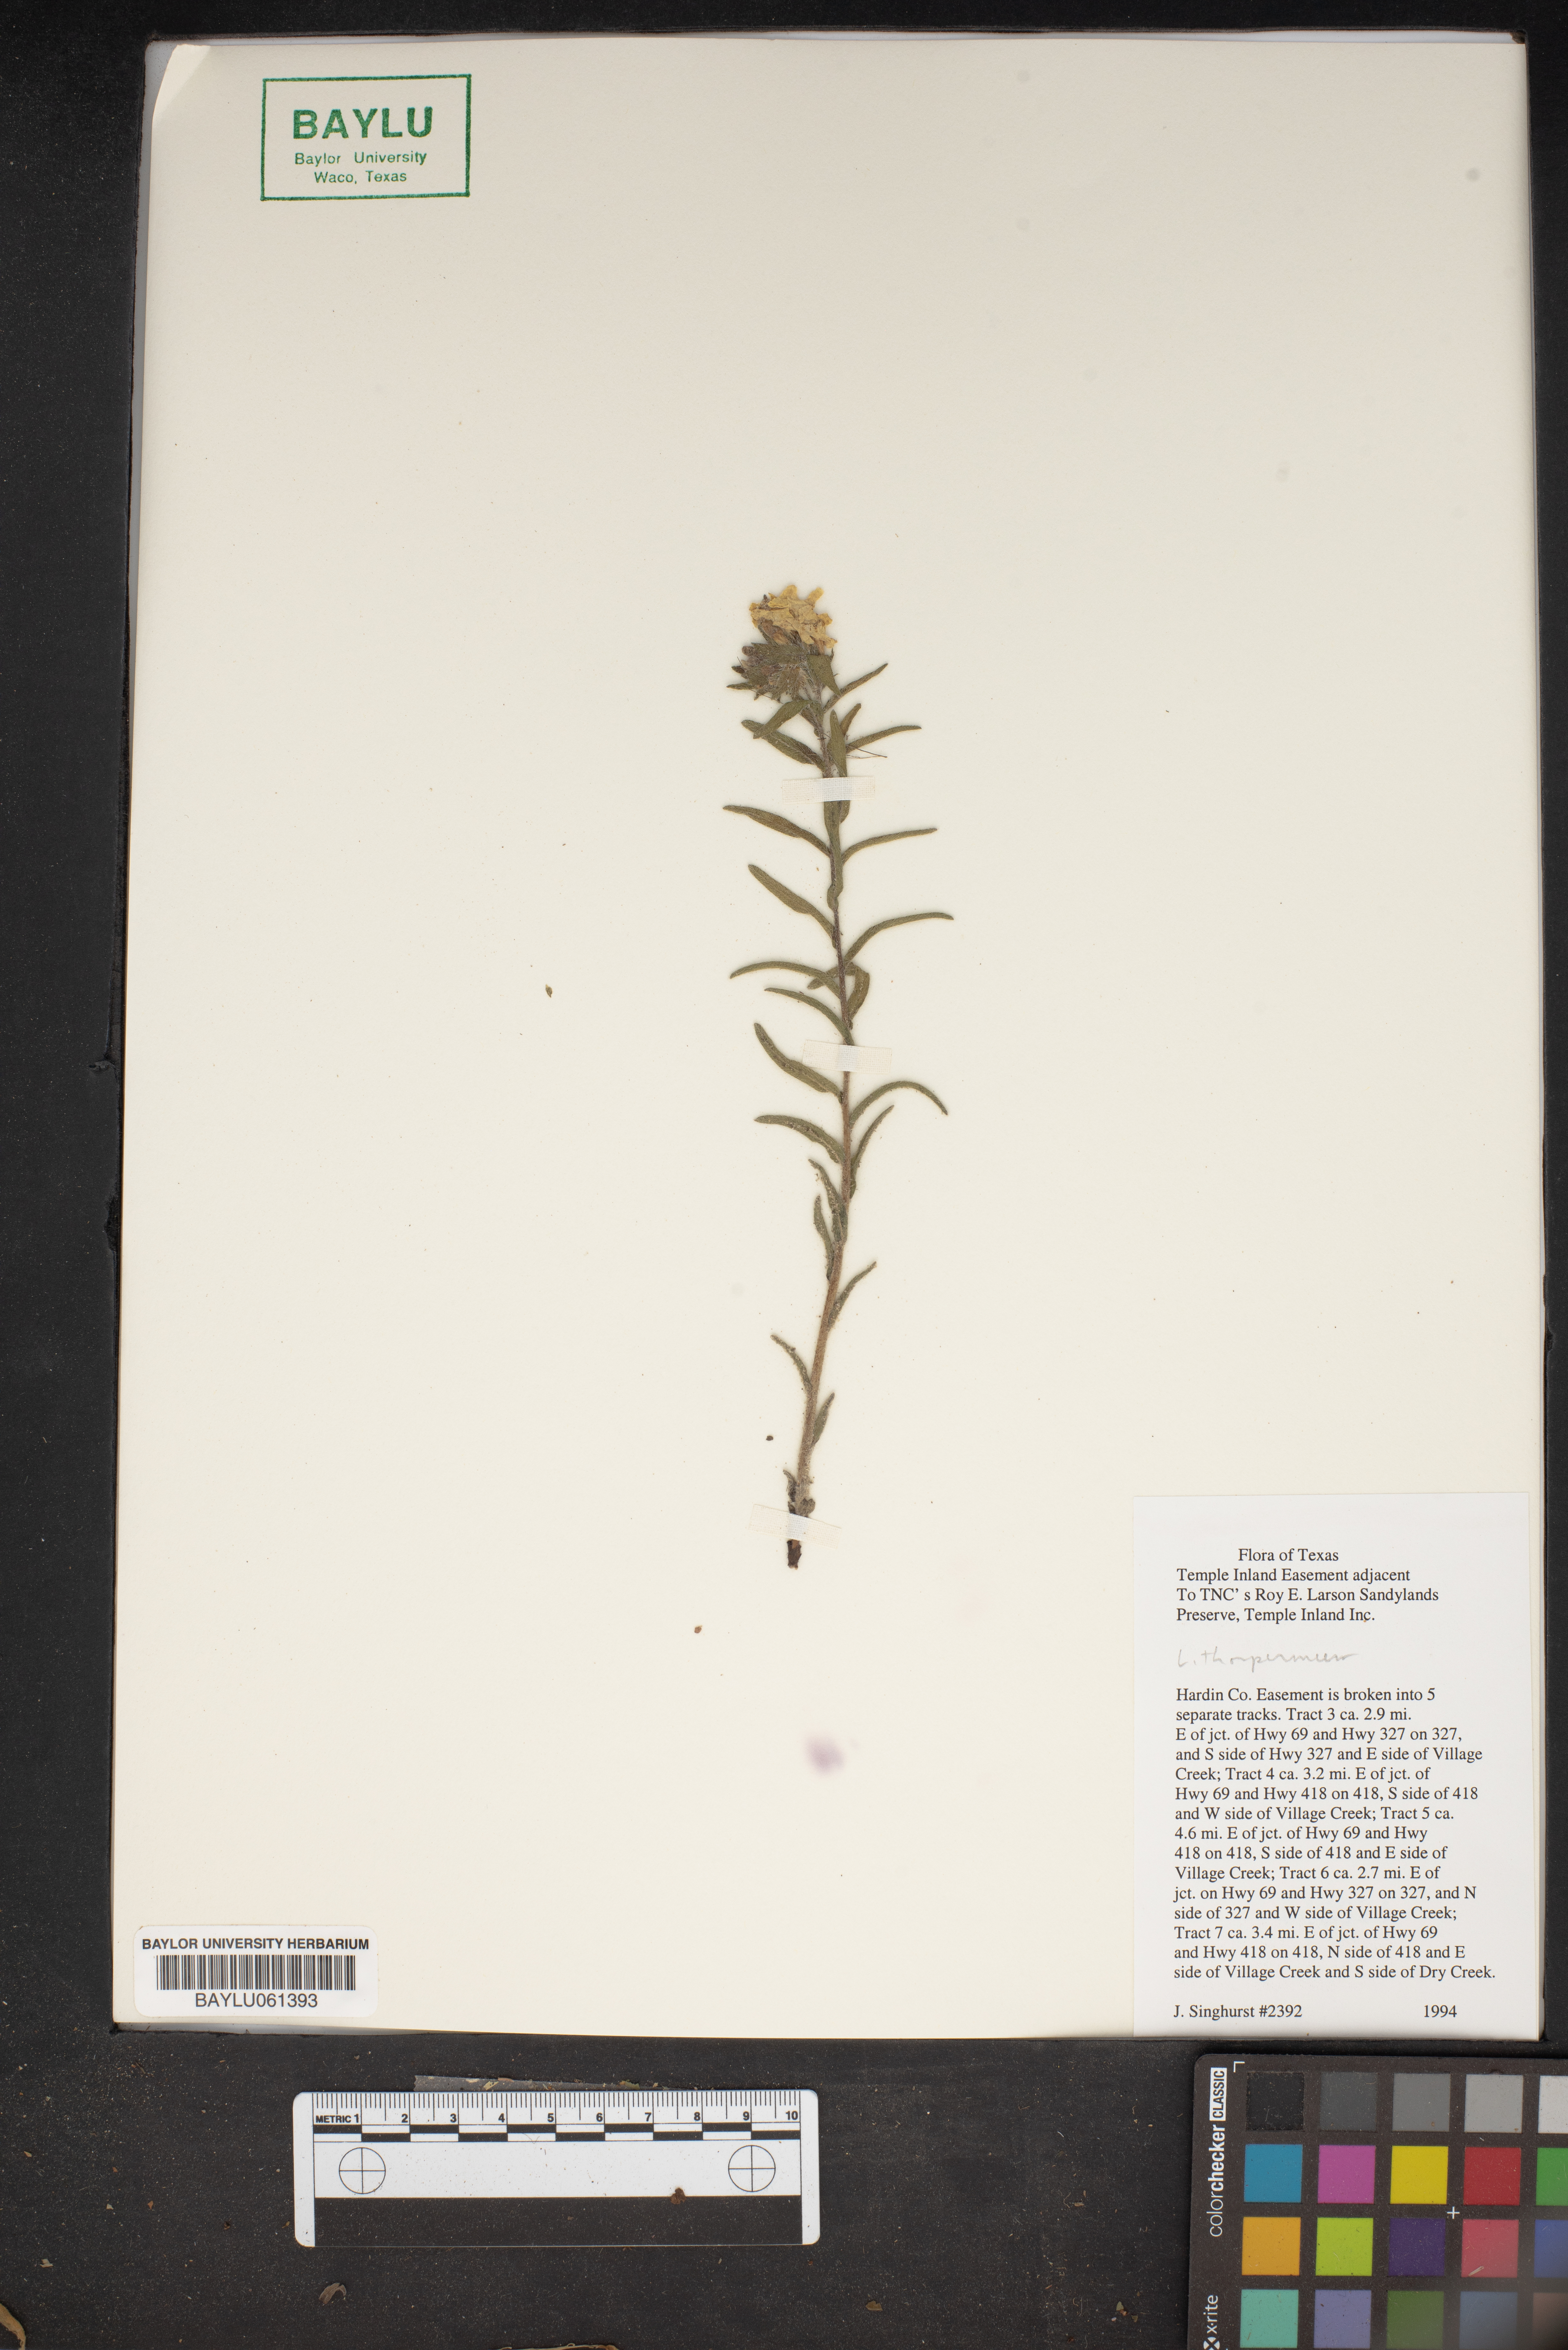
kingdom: Plantae
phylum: Tracheophyta
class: Magnoliopsida
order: Boraginales
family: Boraginaceae
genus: Lithospermum
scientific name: Lithospermum
